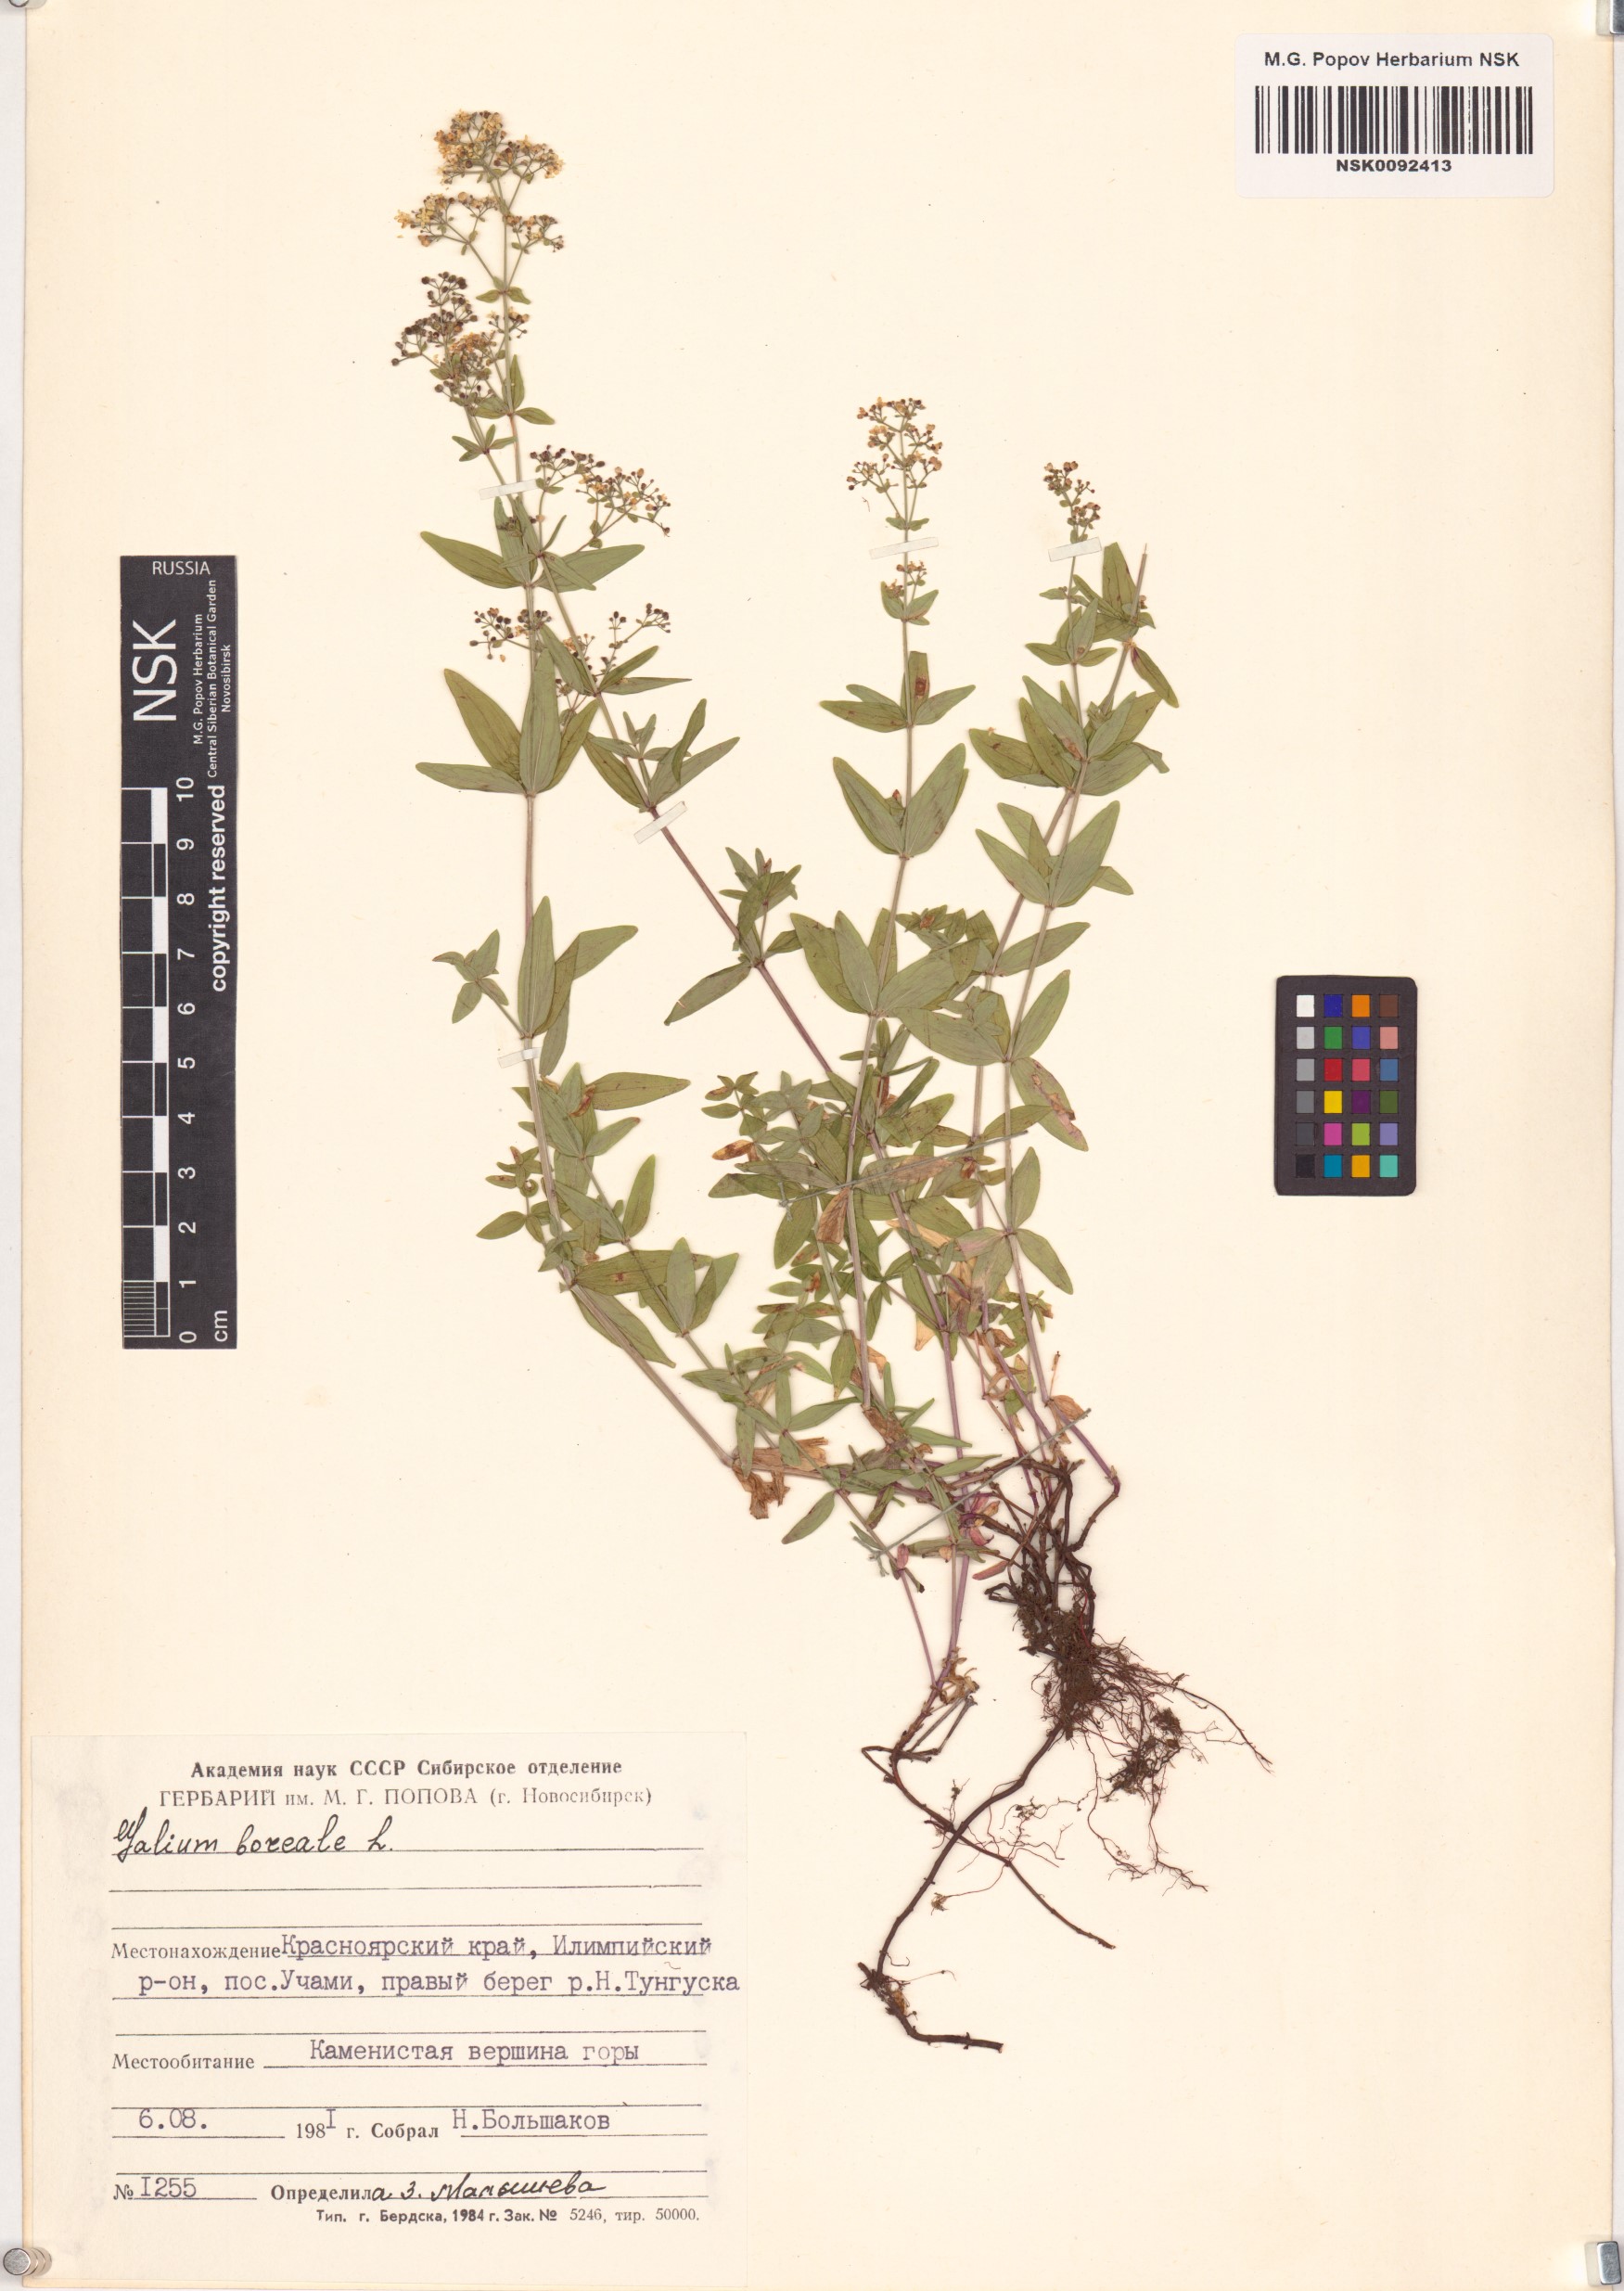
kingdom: Plantae
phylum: Tracheophyta
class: Magnoliopsida
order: Gentianales
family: Rubiaceae
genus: Galium
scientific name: Galium boreale
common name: Northern bedstraw
